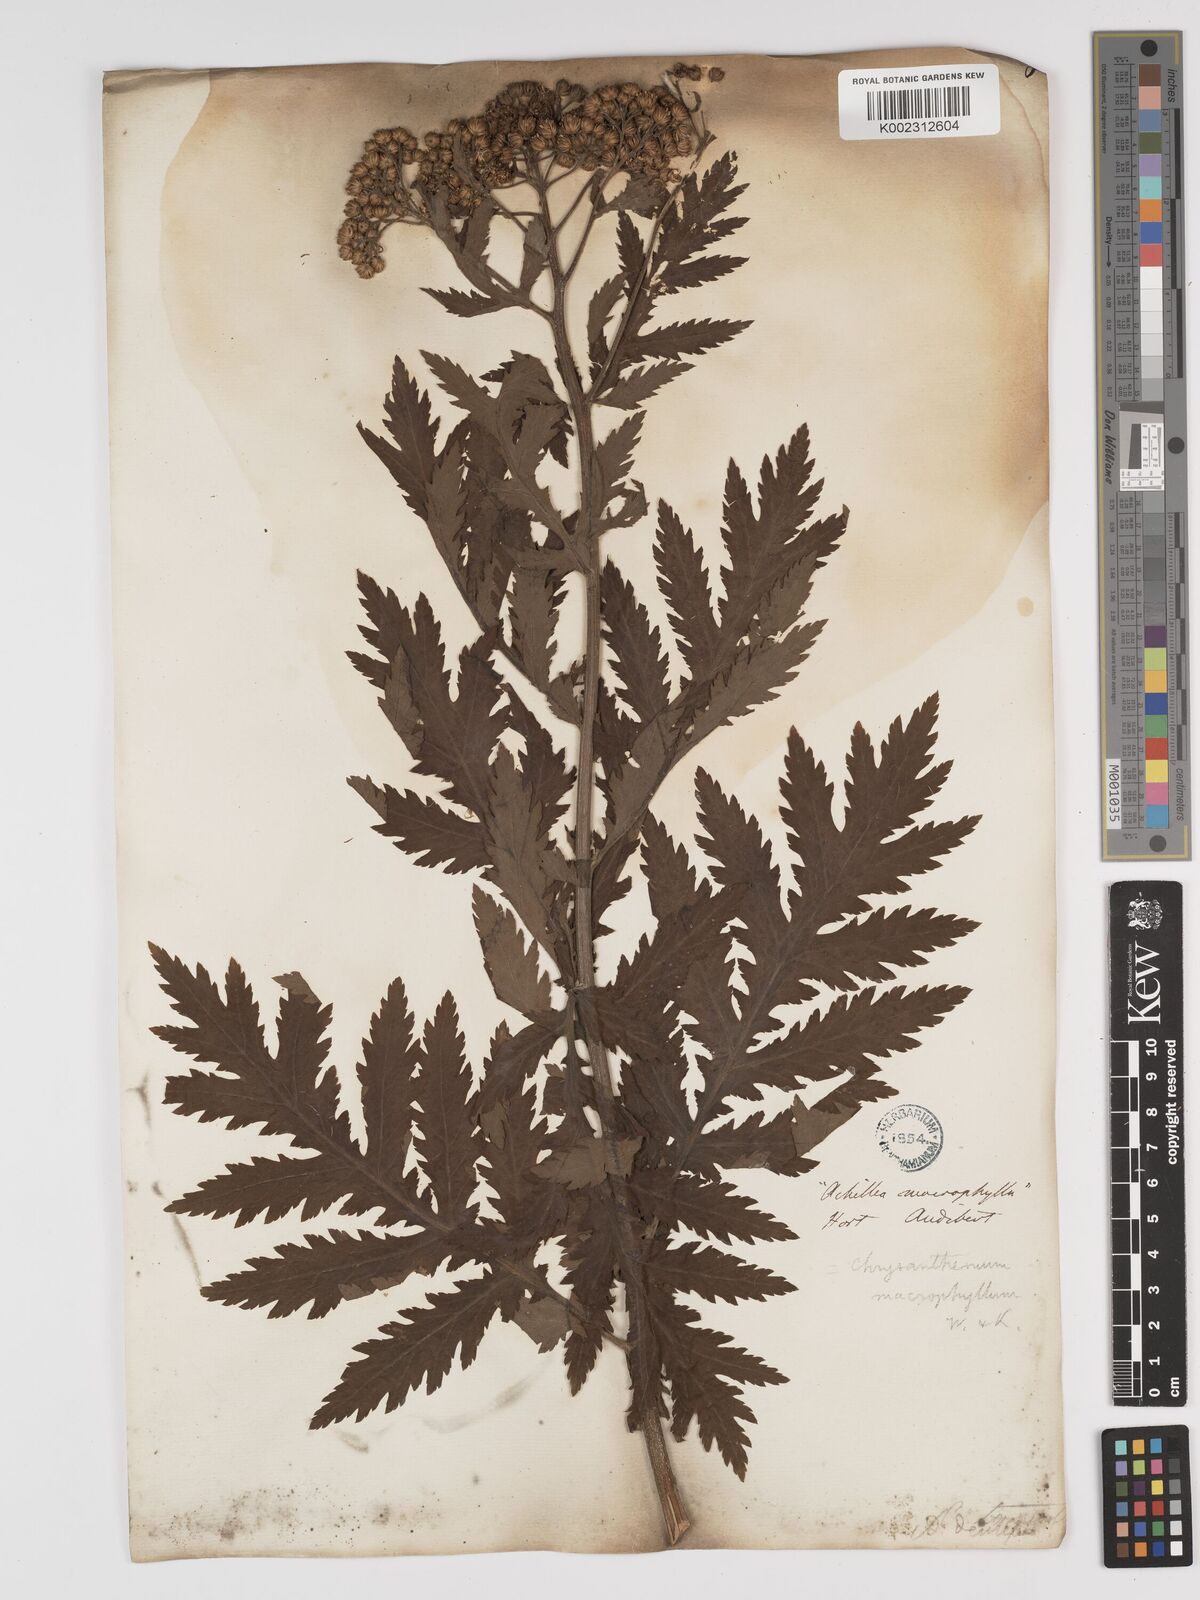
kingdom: Plantae
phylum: Tracheophyta
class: Magnoliopsida
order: Asterales
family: Asteraceae
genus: Tanacetum
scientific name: Tanacetum macrophyllum
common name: Rayed tansy
